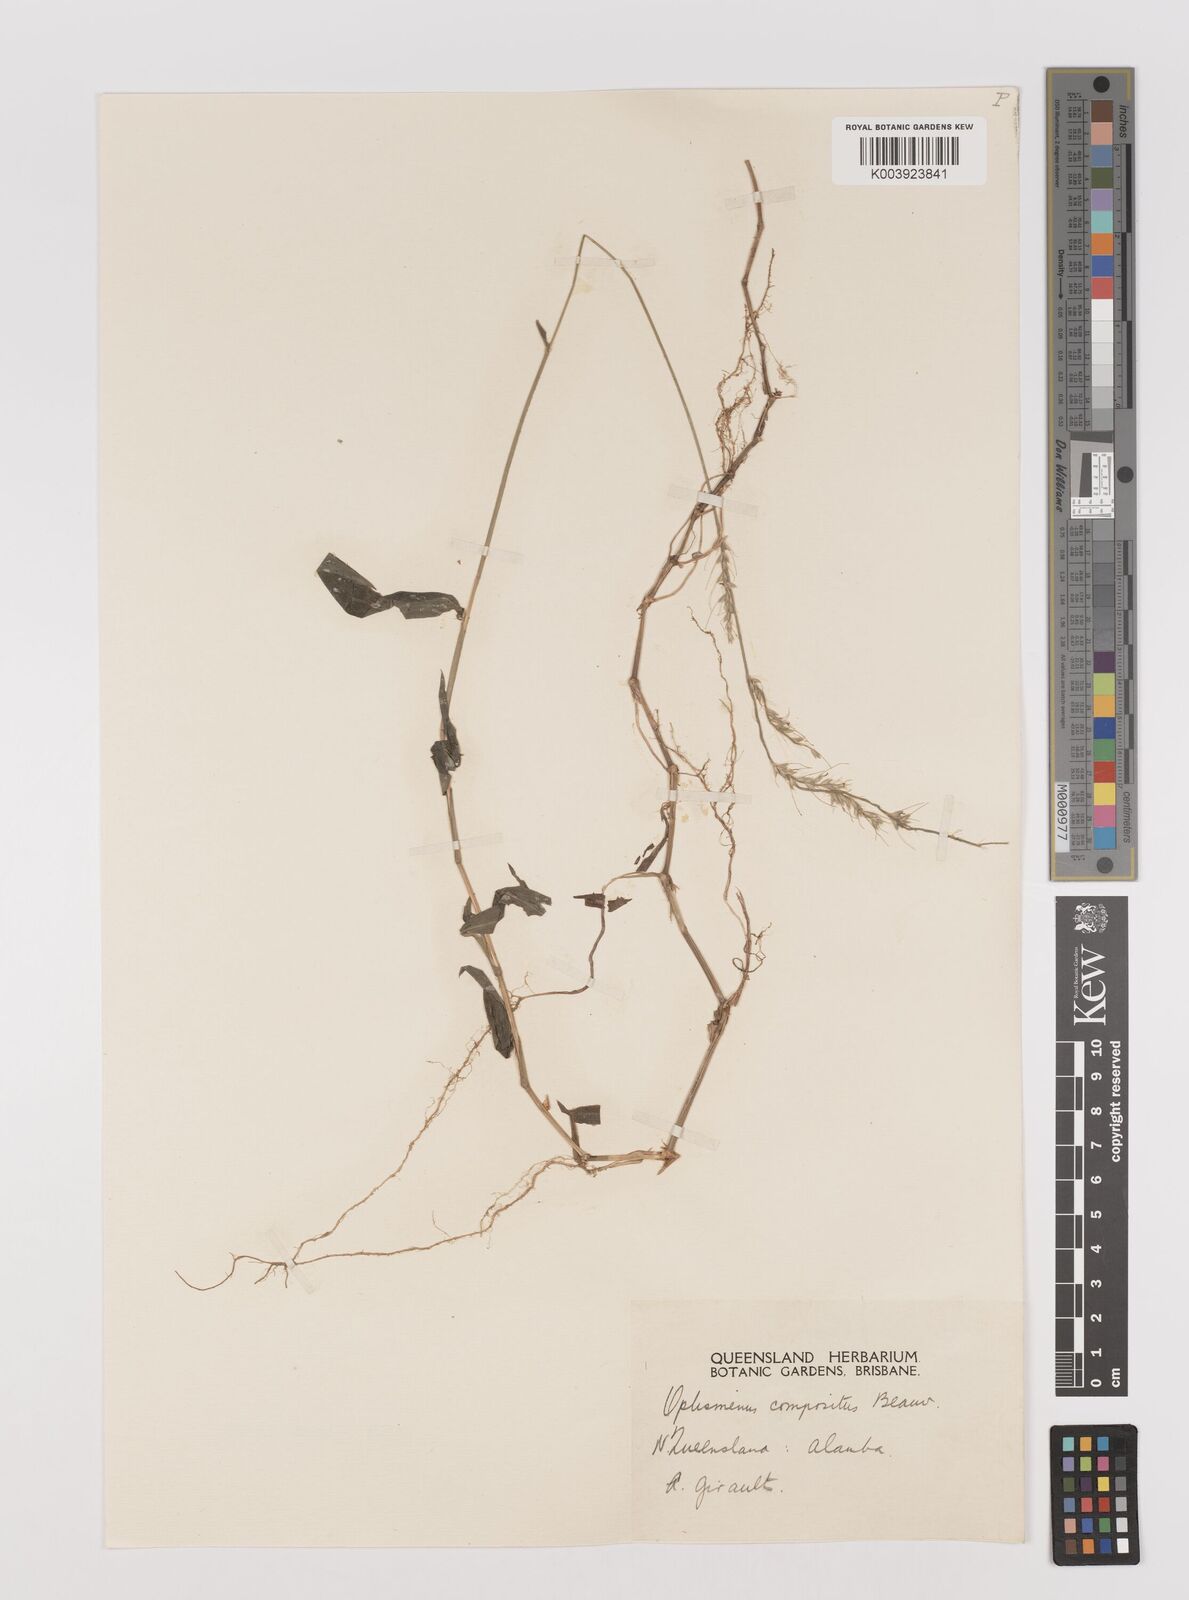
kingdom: Plantae
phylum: Tracheophyta
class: Liliopsida
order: Poales
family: Poaceae
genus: Oplismenus
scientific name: Oplismenus compositus
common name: Running mountain grass
